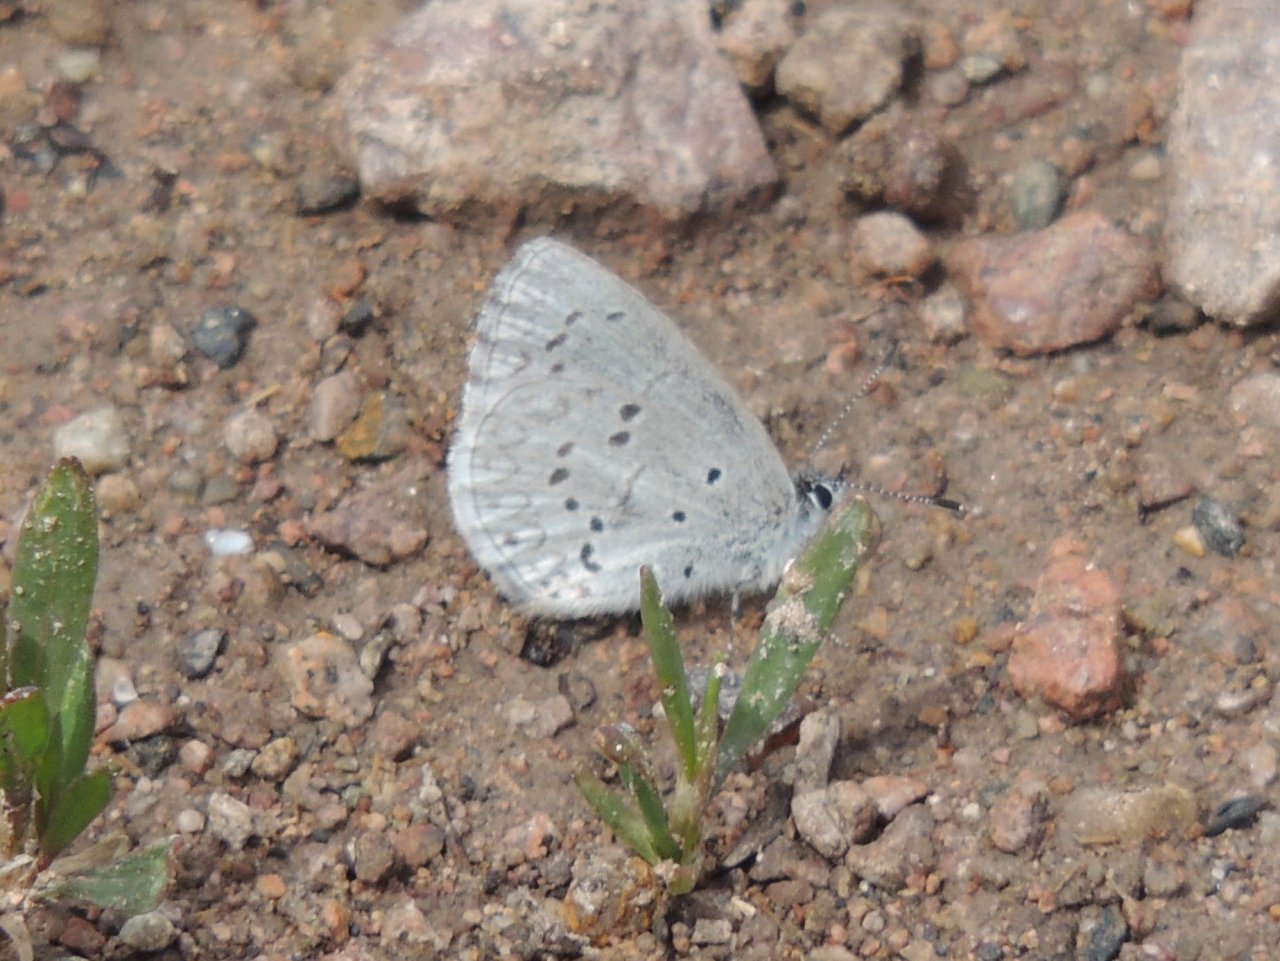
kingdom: Animalia
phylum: Arthropoda
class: Insecta
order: Lepidoptera
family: Lycaenidae
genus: Celastrina
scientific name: Celastrina ladon
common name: Echo Azure
